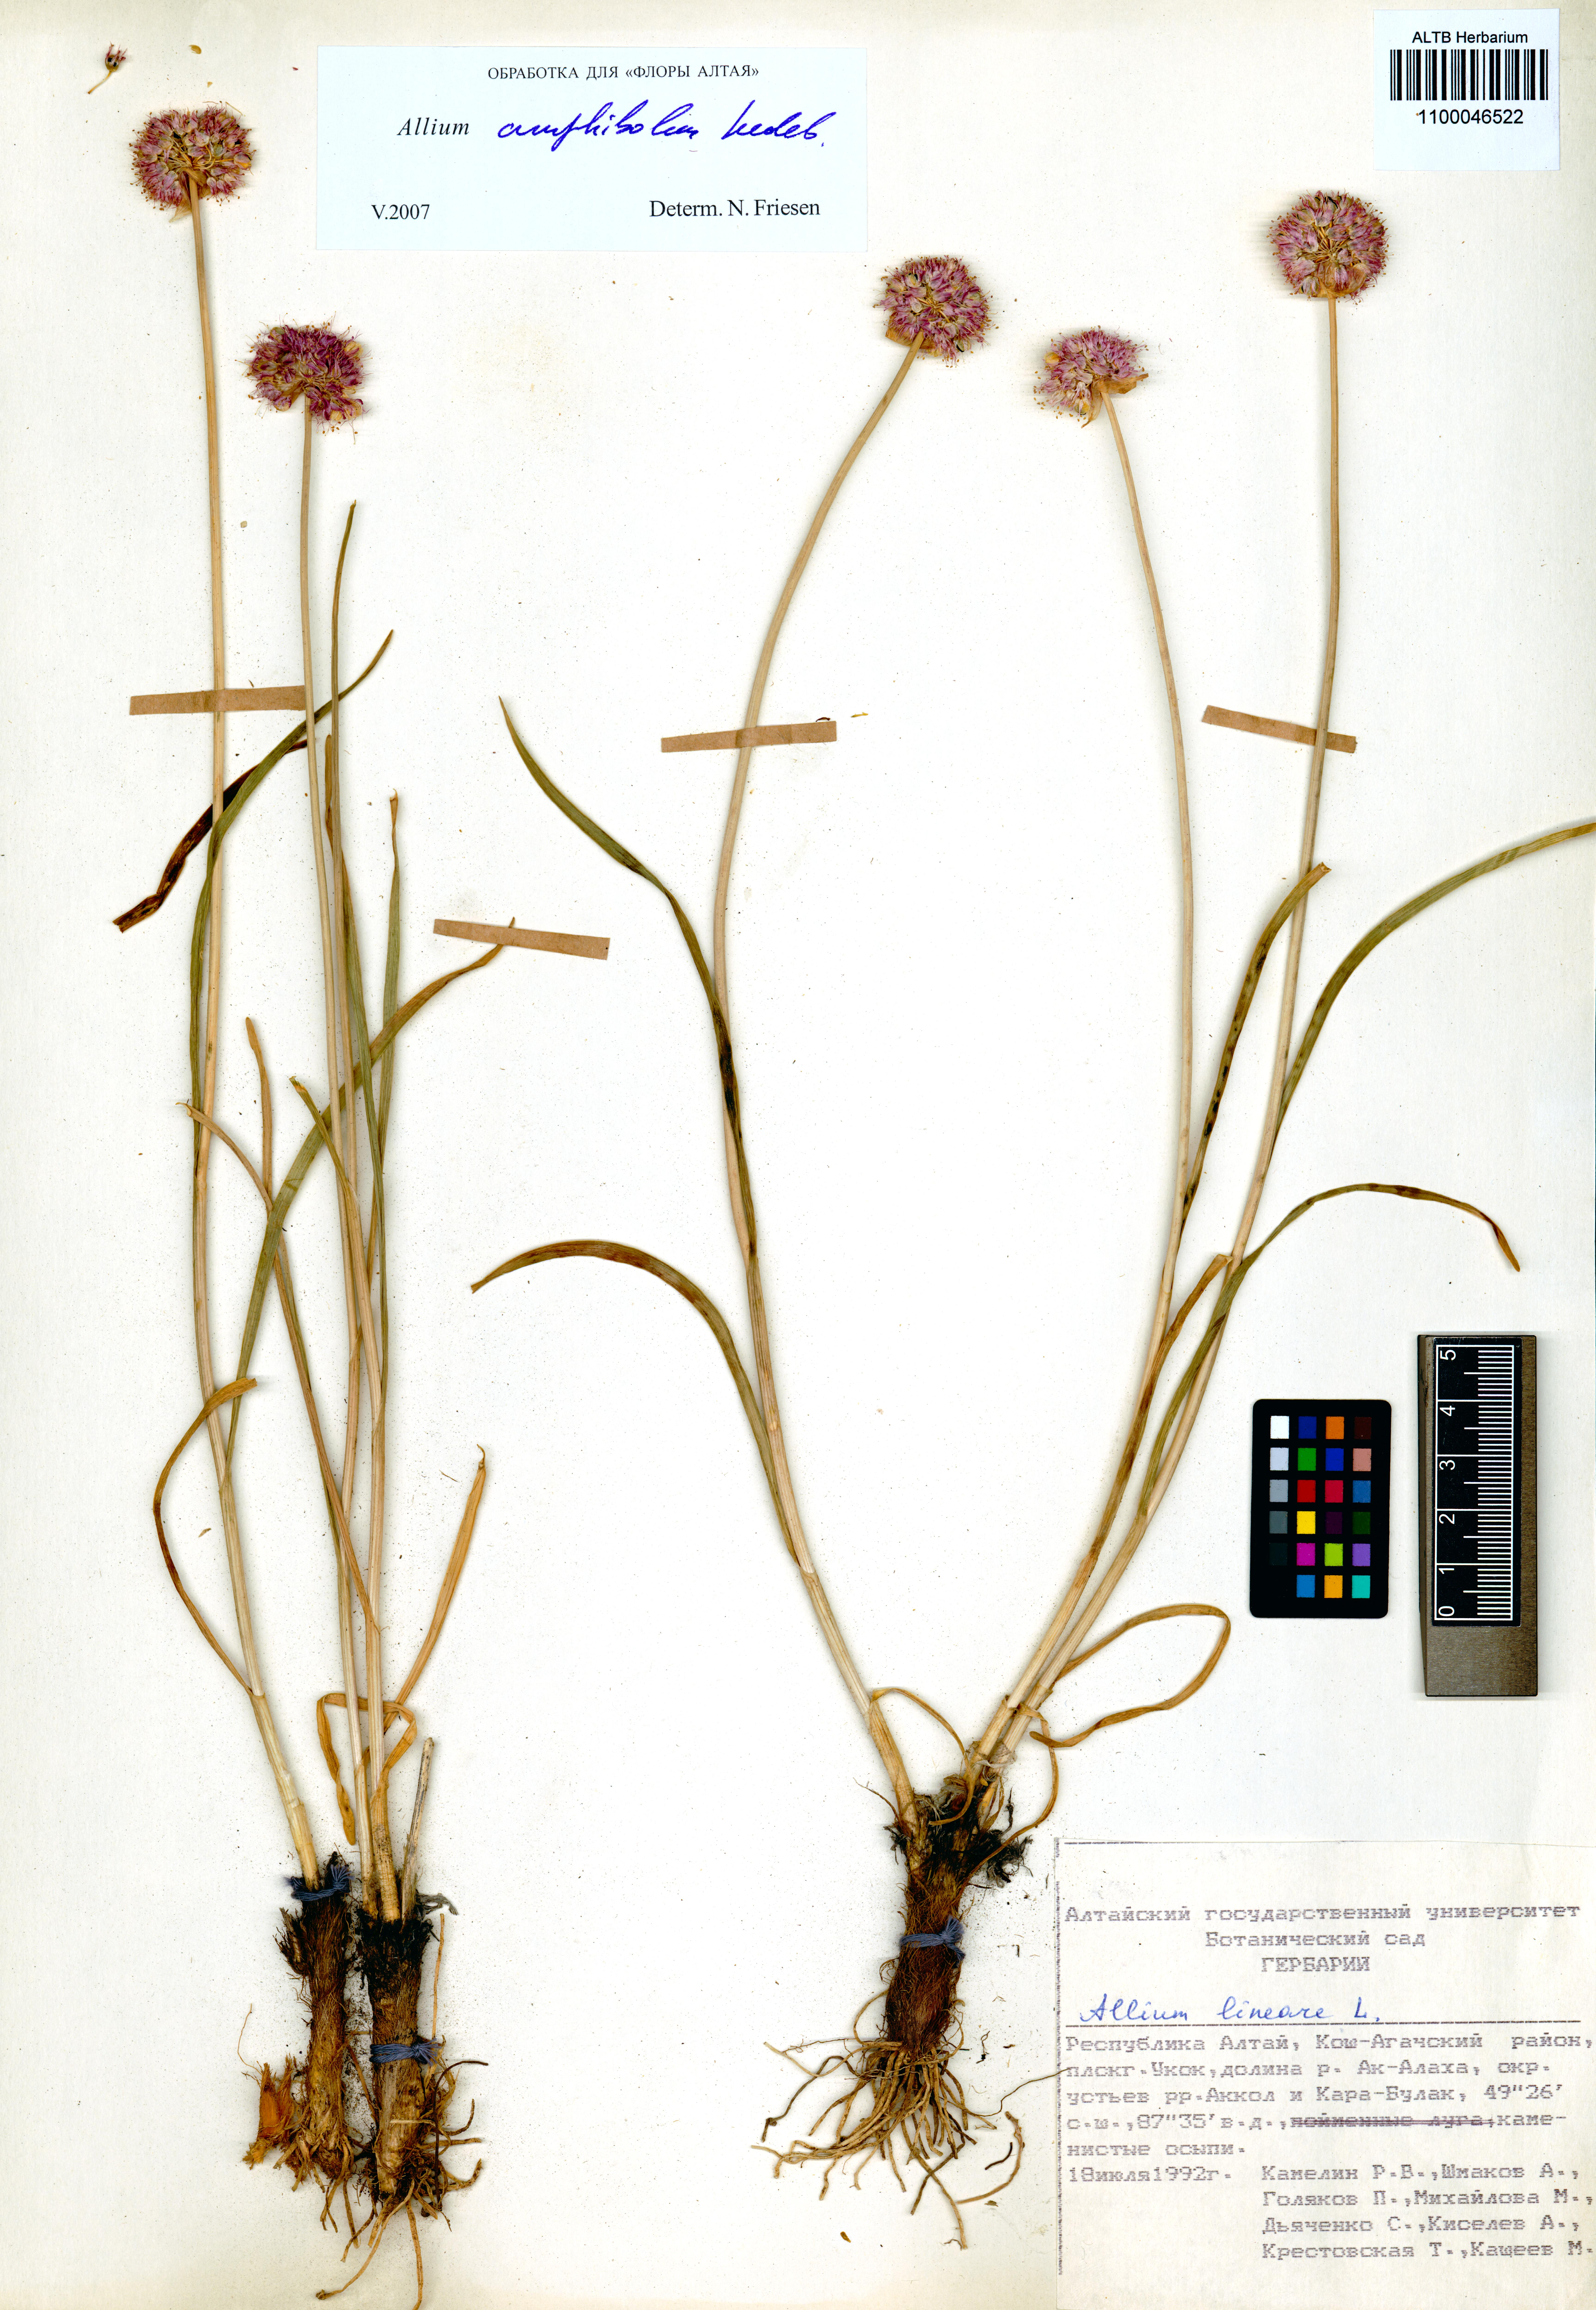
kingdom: Plantae
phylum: Tracheophyta
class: Liliopsida
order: Asparagales
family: Amaryllidaceae
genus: Allium
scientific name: Allium amphibolum
